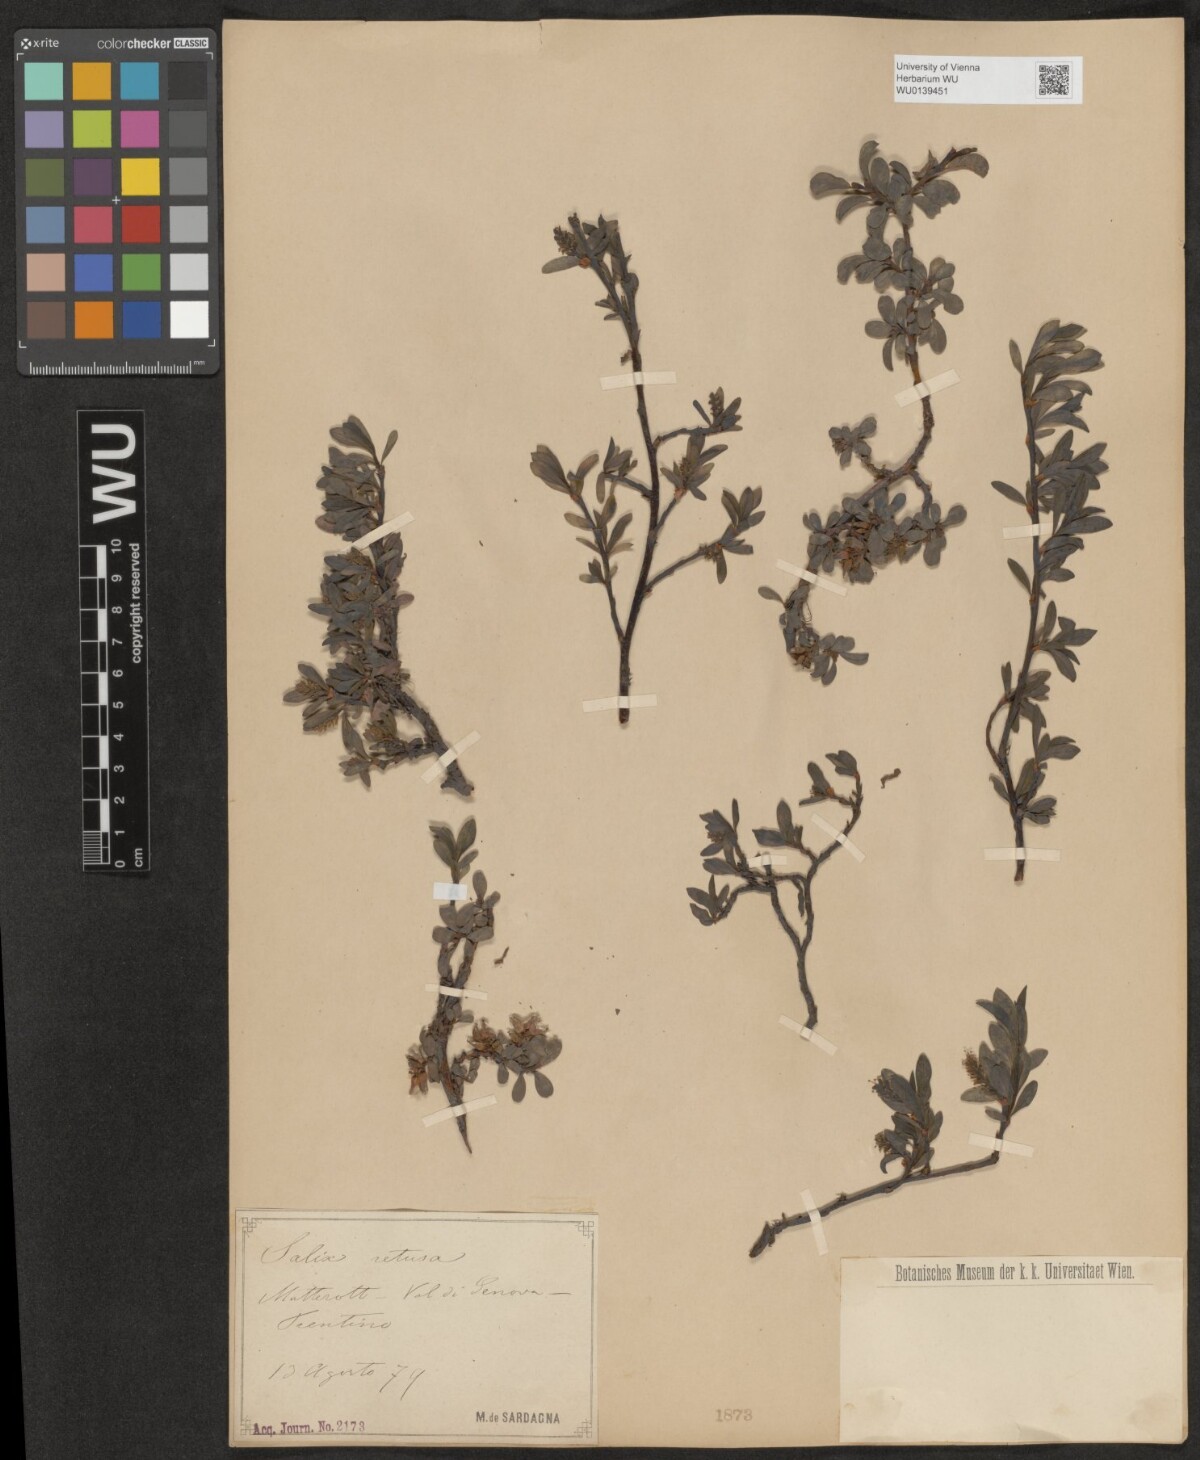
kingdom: Plantae
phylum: Tracheophyta
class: Magnoliopsida
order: Malpighiales
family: Salicaceae
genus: Salix
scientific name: Salix retusa
